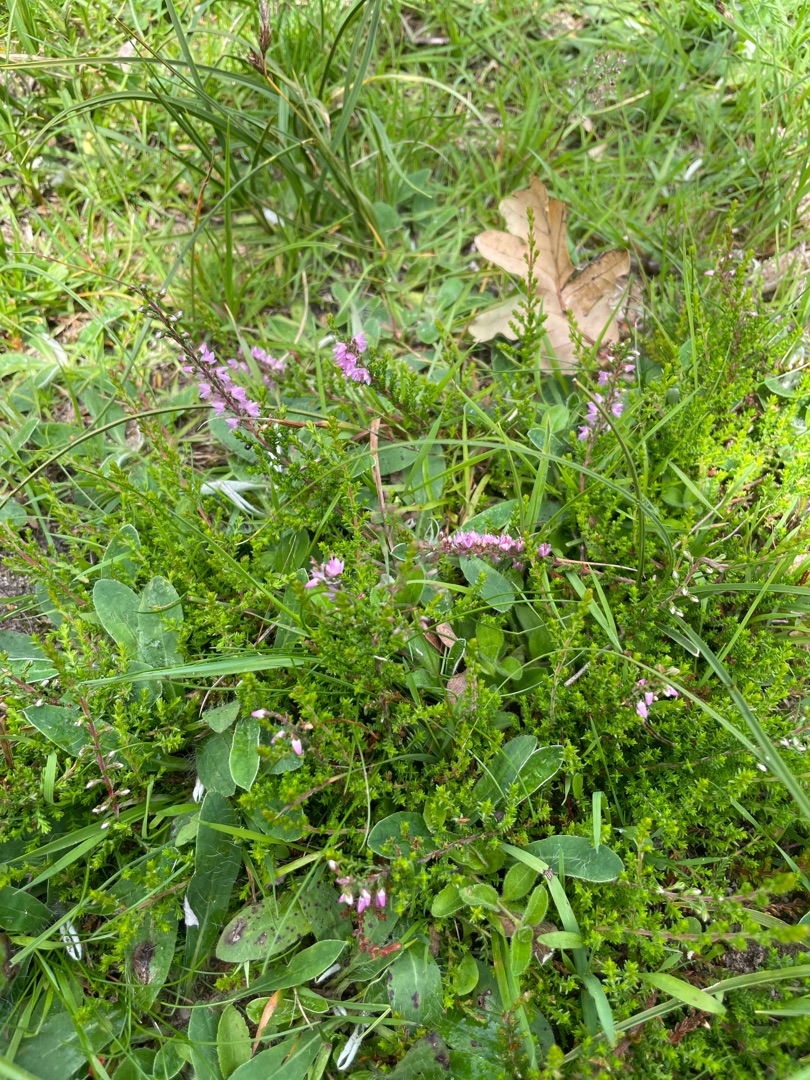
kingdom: Plantae
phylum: Tracheophyta
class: Magnoliopsida
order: Ericales
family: Ericaceae
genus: Calluna
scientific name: Calluna vulgaris
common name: Hedelyng
